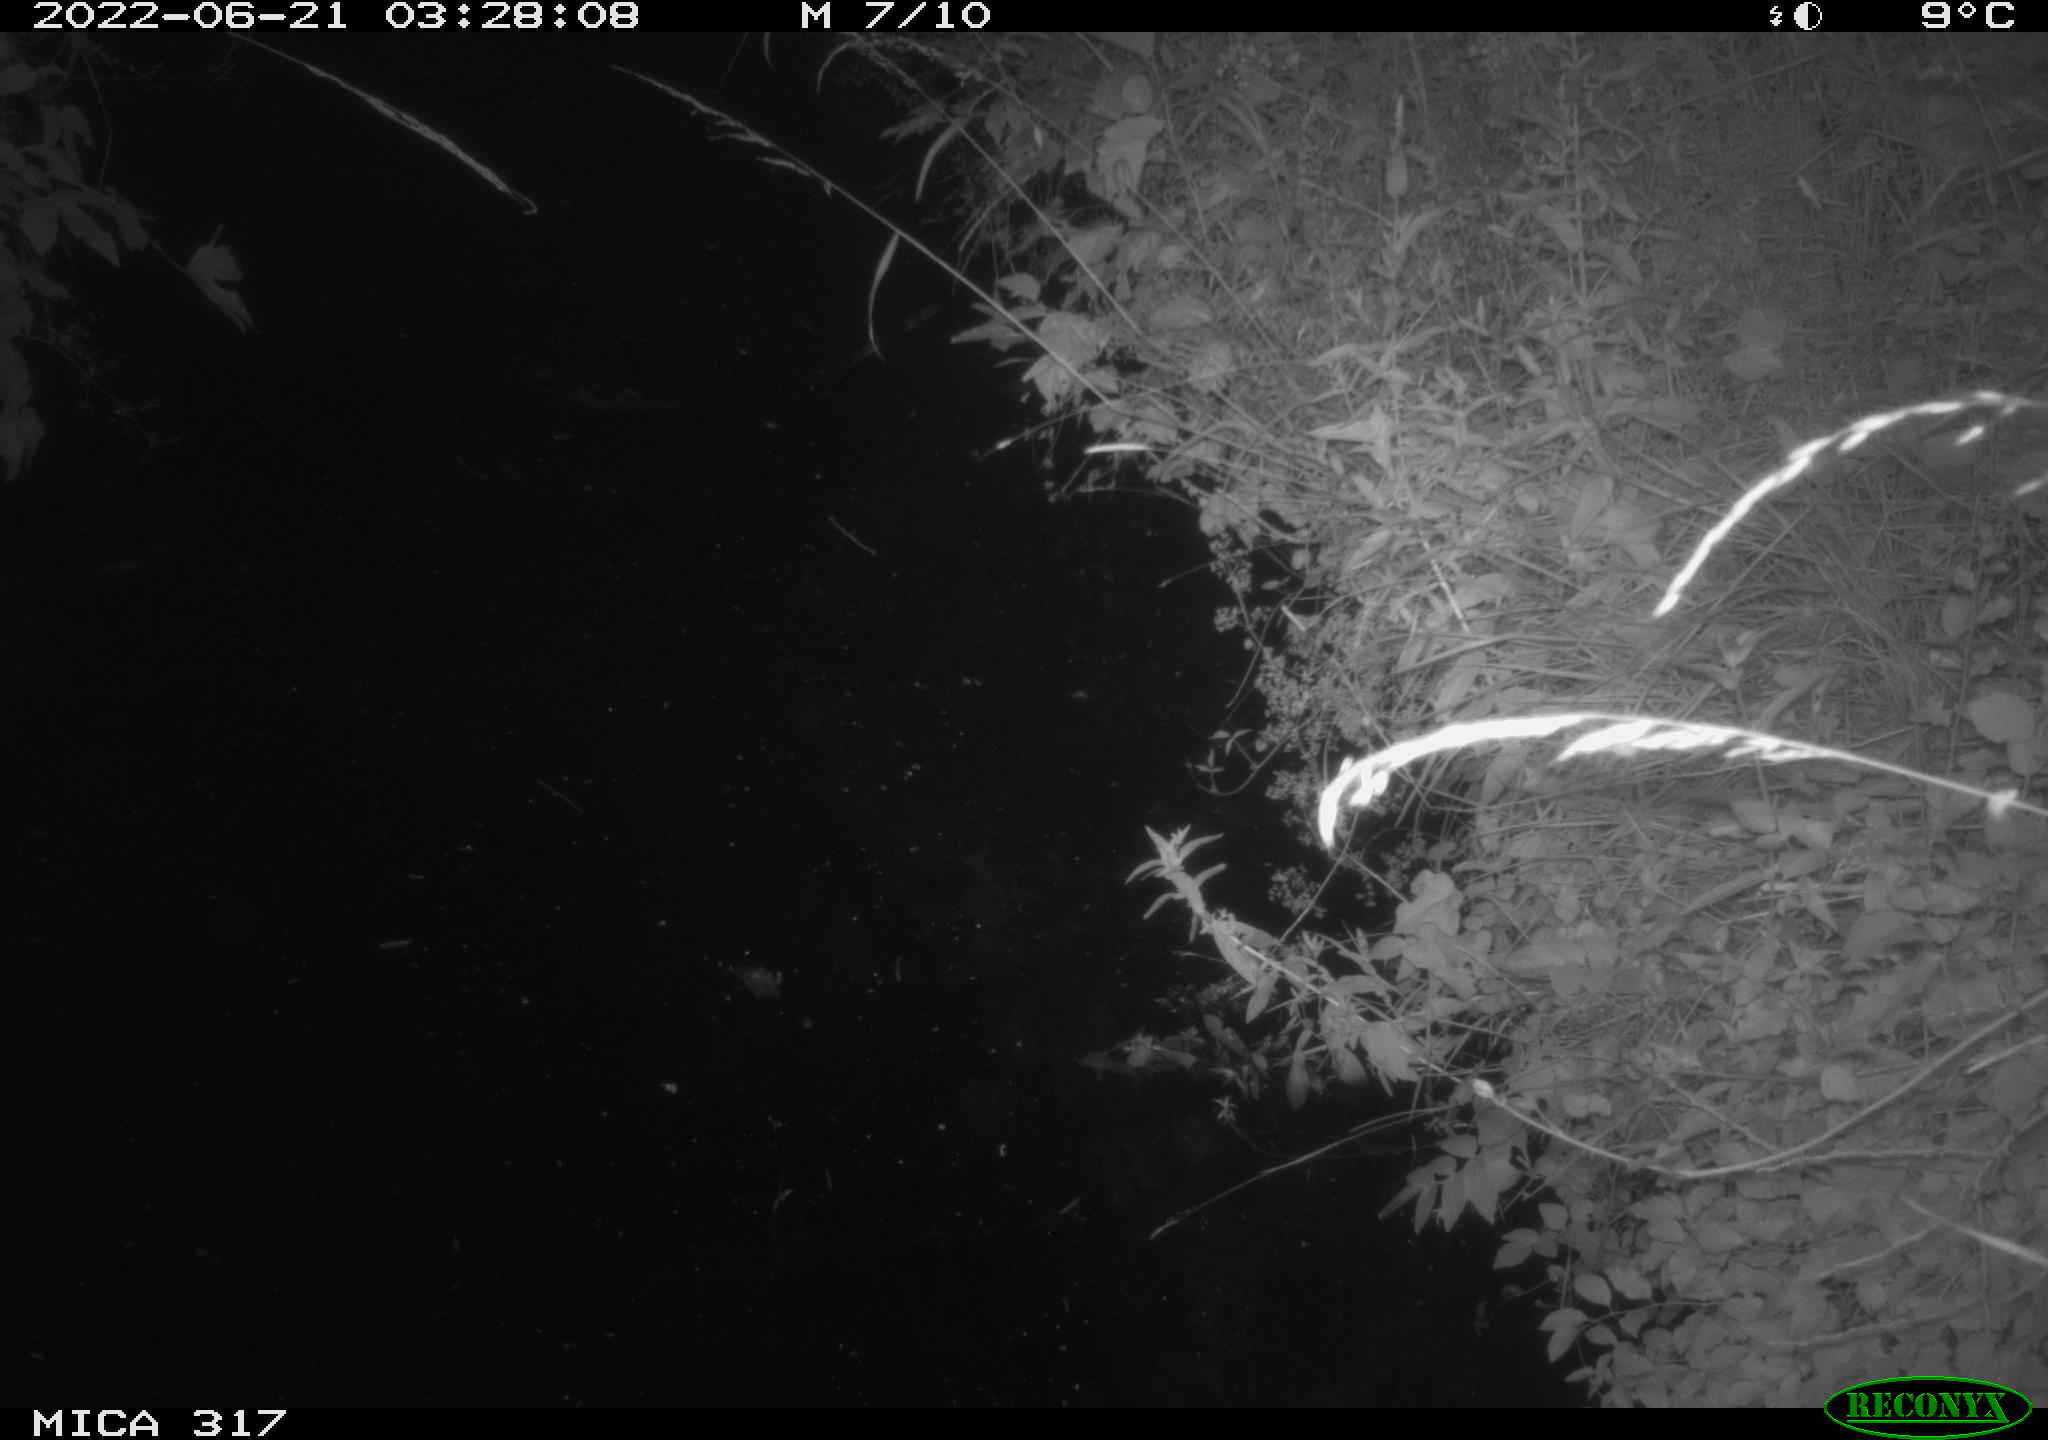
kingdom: Animalia
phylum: Chordata
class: Aves
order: Anseriformes
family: Anatidae
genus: Anas
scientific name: Anas platyrhynchos
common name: Mallard
